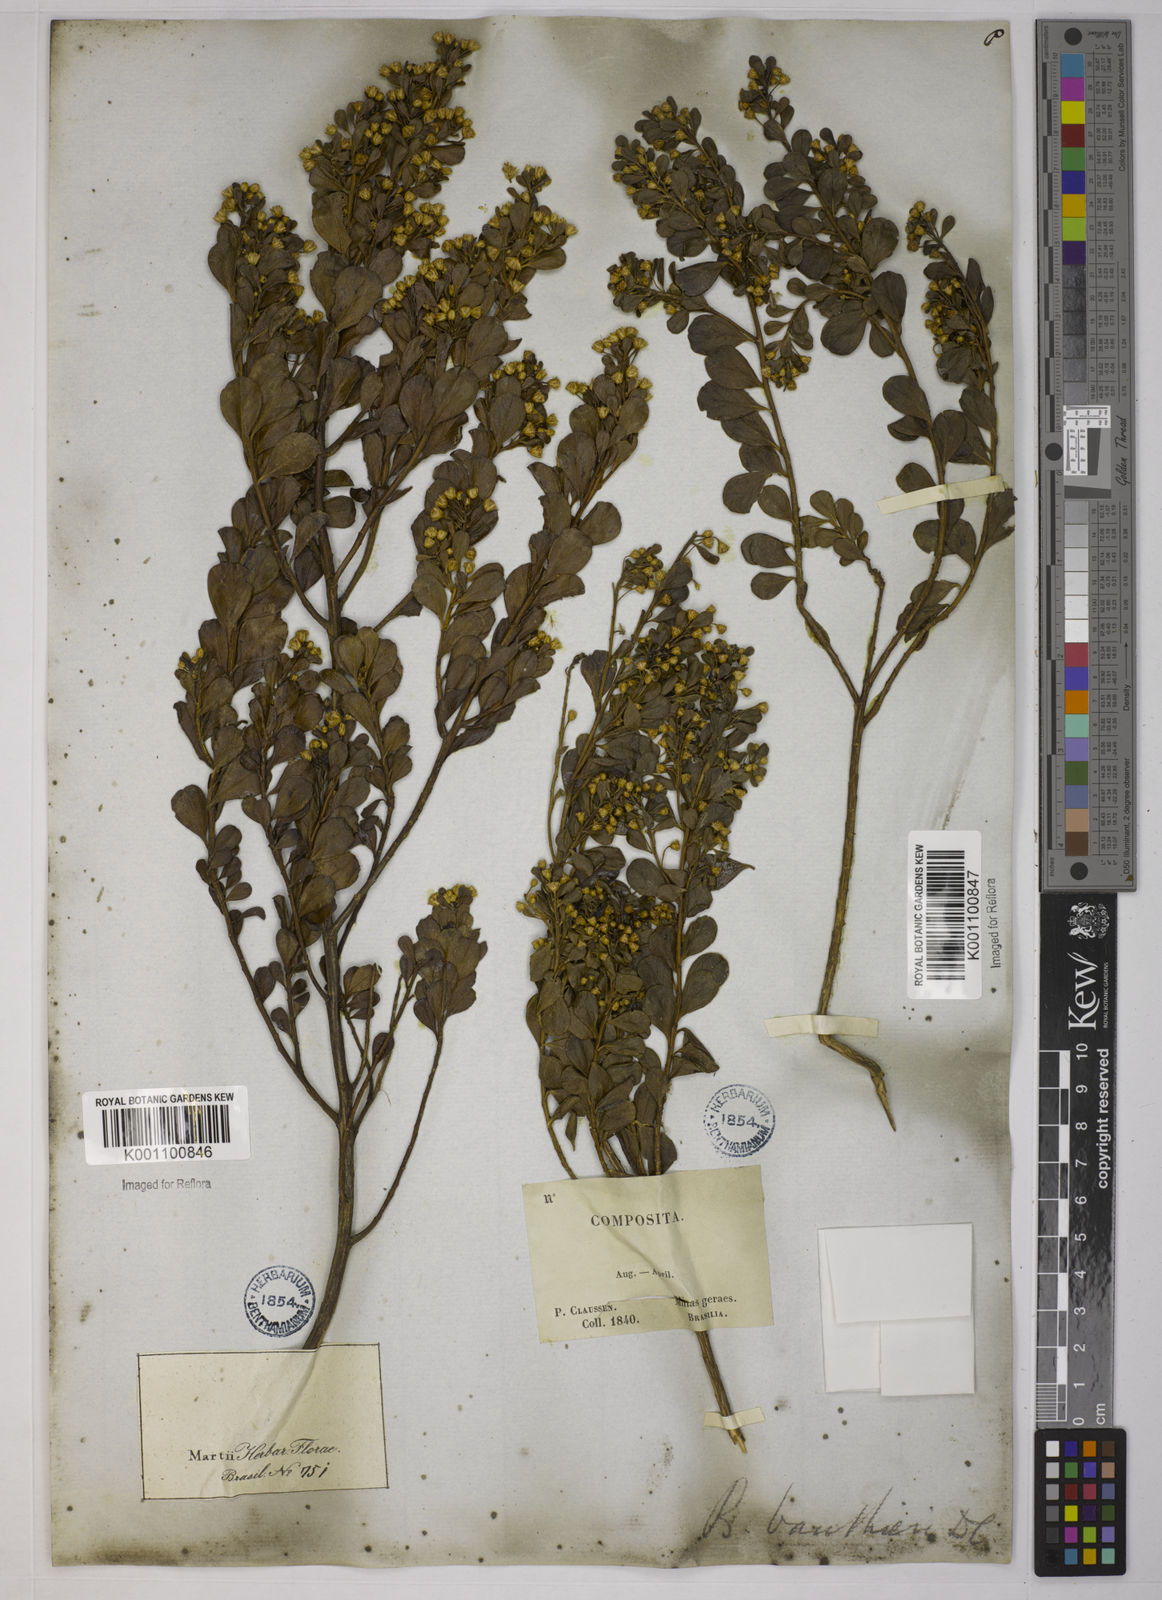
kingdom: Plantae
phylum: Tracheophyta
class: Magnoliopsida
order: Asterales
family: Asteraceae
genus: Baccharis
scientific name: Baccharis reticularia
